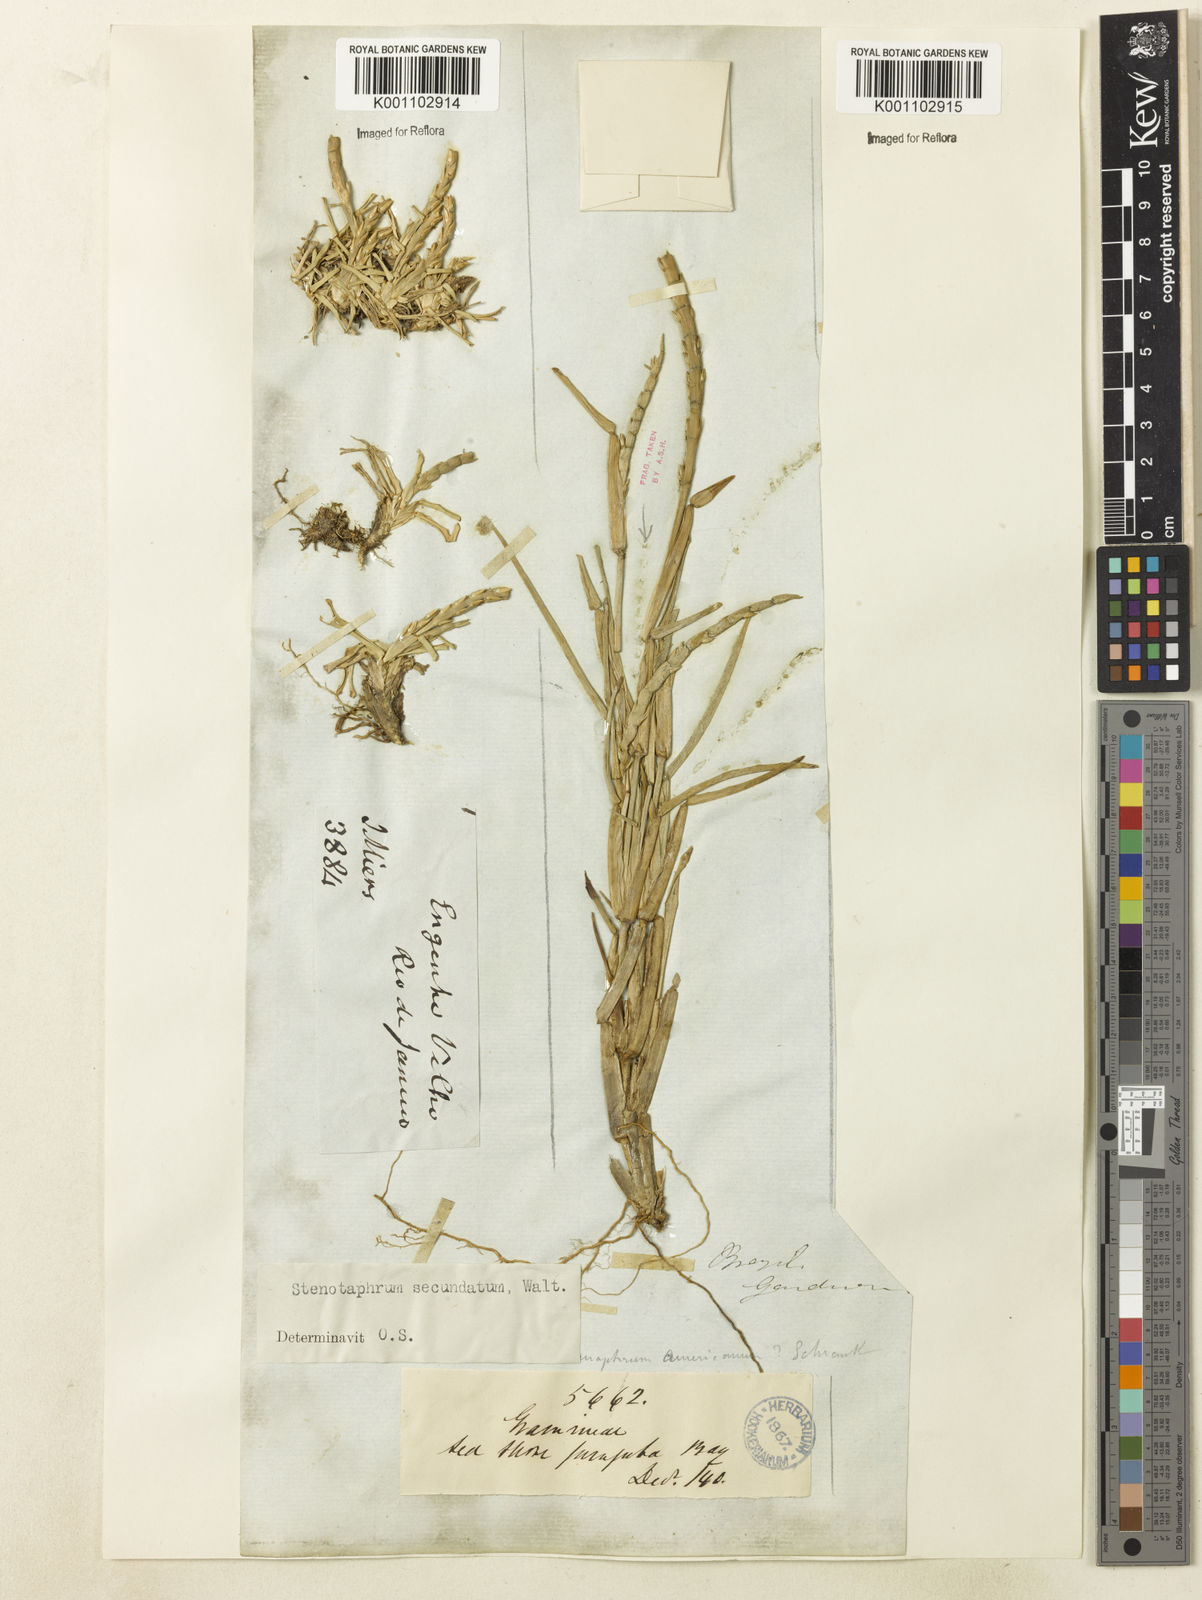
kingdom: Plantae
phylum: Tracheophyta
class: Liliopsida
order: Poales
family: Poaceae
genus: Stenotaphrum
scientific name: Stenotaphrum secundatum
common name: St. augustine grass
